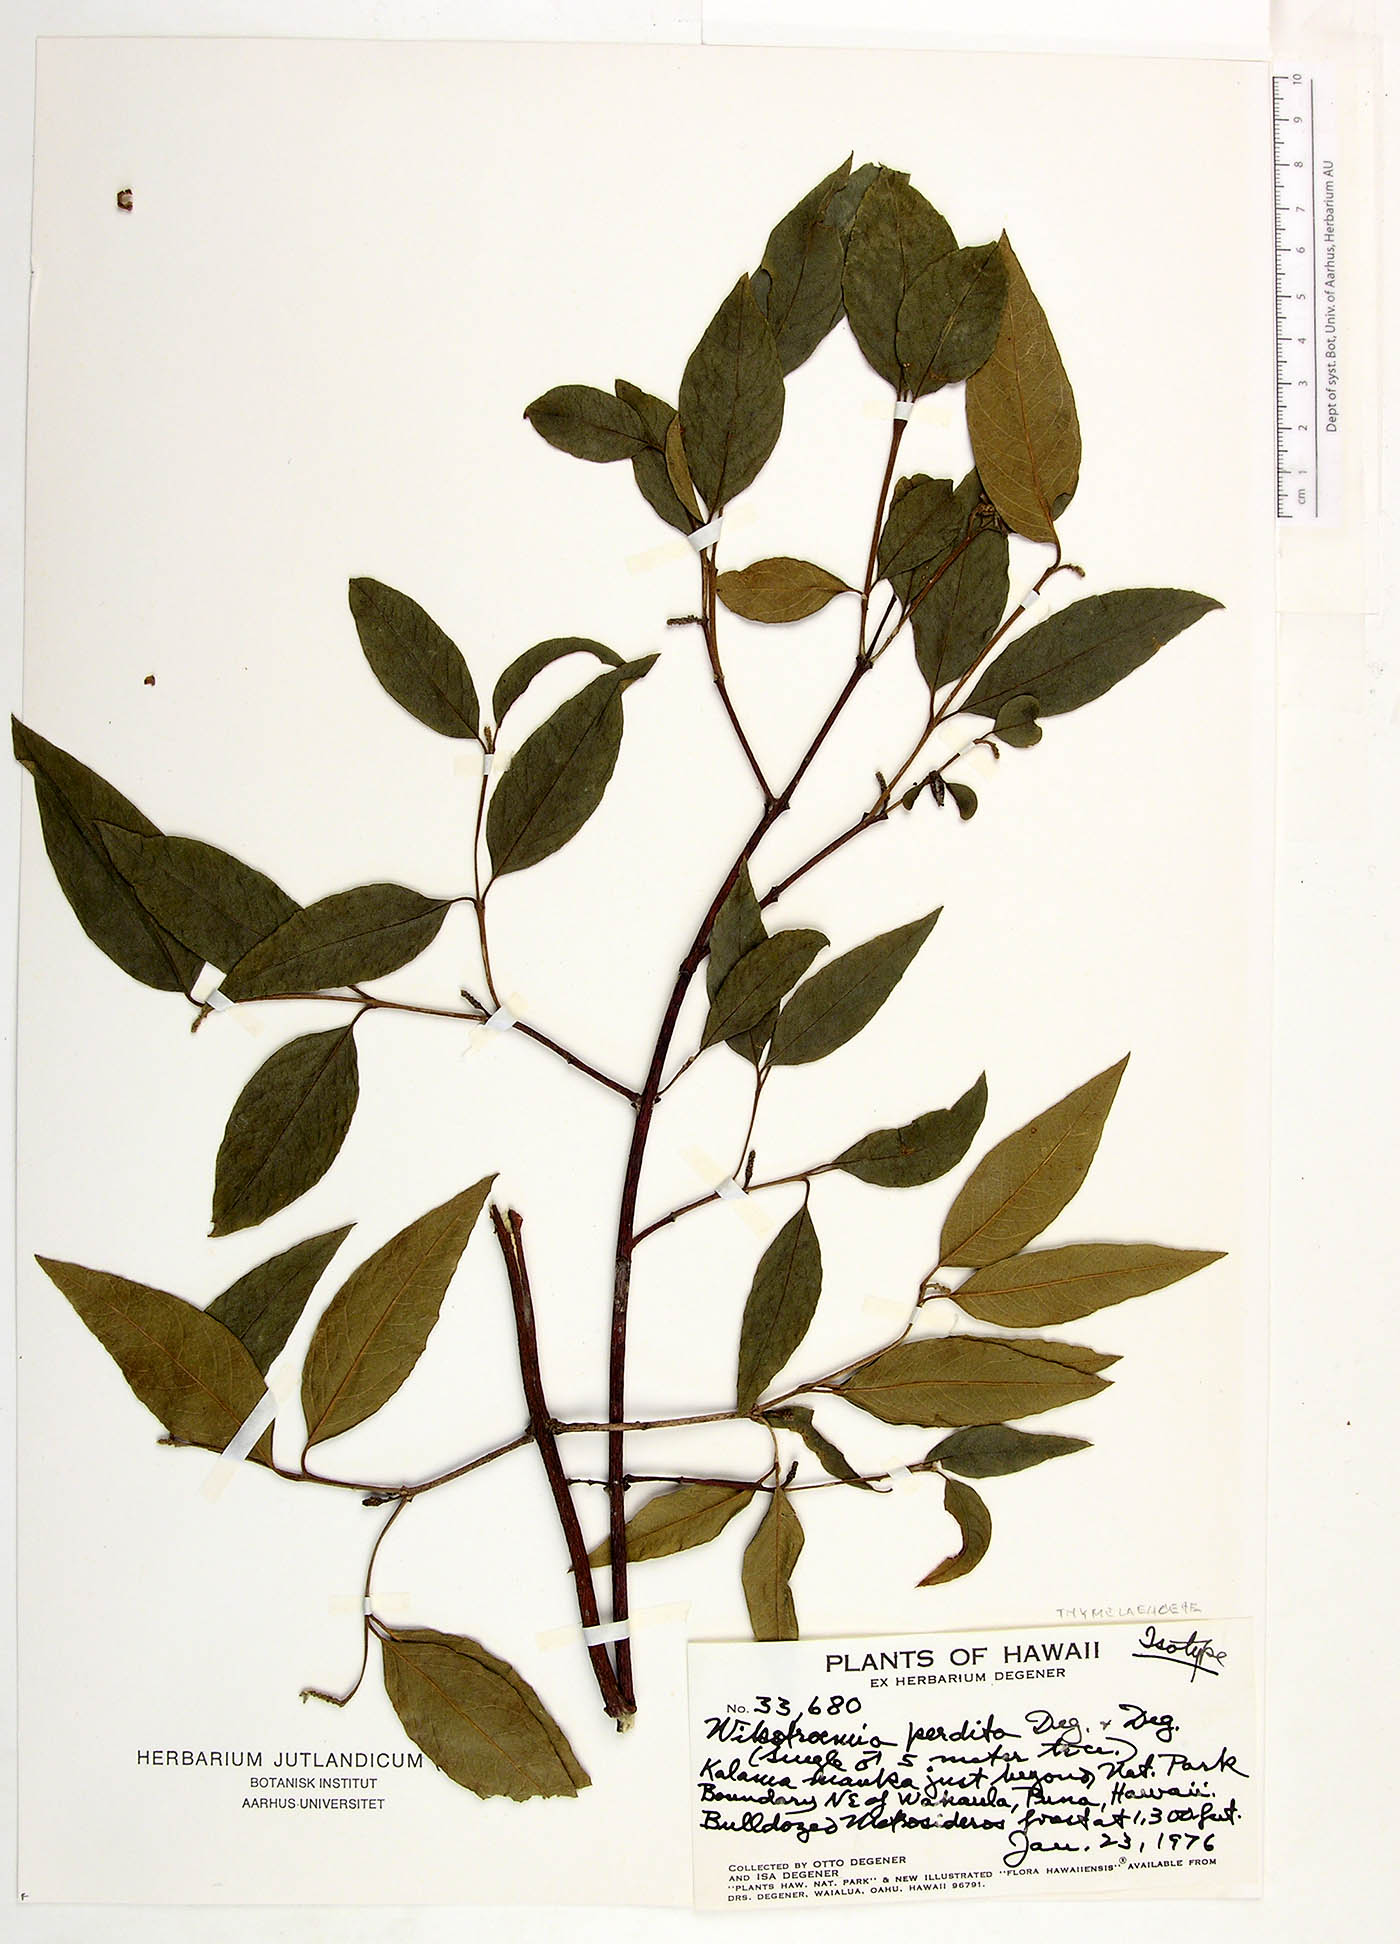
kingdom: Plantae
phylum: Tracheophyta
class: Magnoliopsida
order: Malvales
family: Thymelaeaceae
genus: Wikstroemia
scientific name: Wikstroemia sandwicensis
